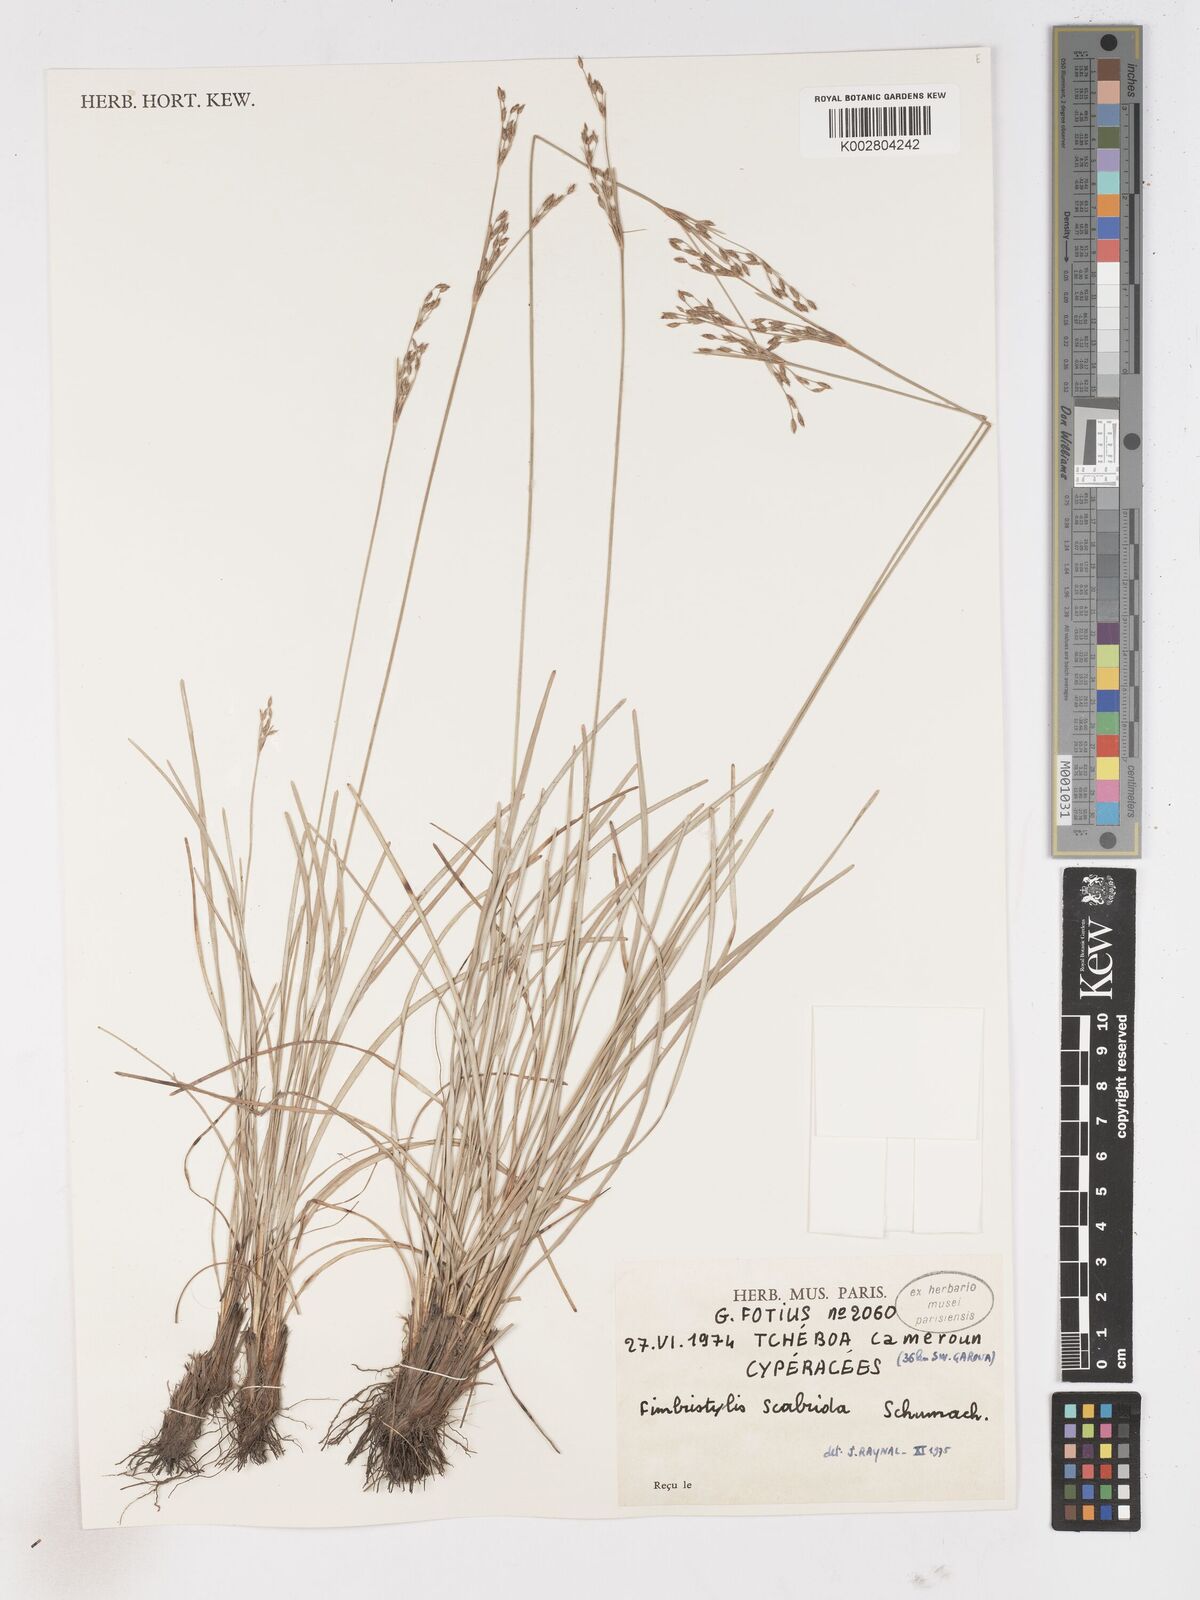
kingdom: Plantae
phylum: Tracheophyta
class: Liliopsida
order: Poales
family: Cyperaceae
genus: Fimbristylis
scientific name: Fimbristylis scabrida
